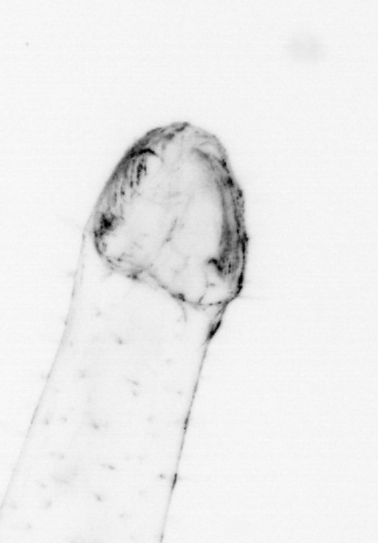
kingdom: Animalia
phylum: Chaetognatha
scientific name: Chaetognatha
